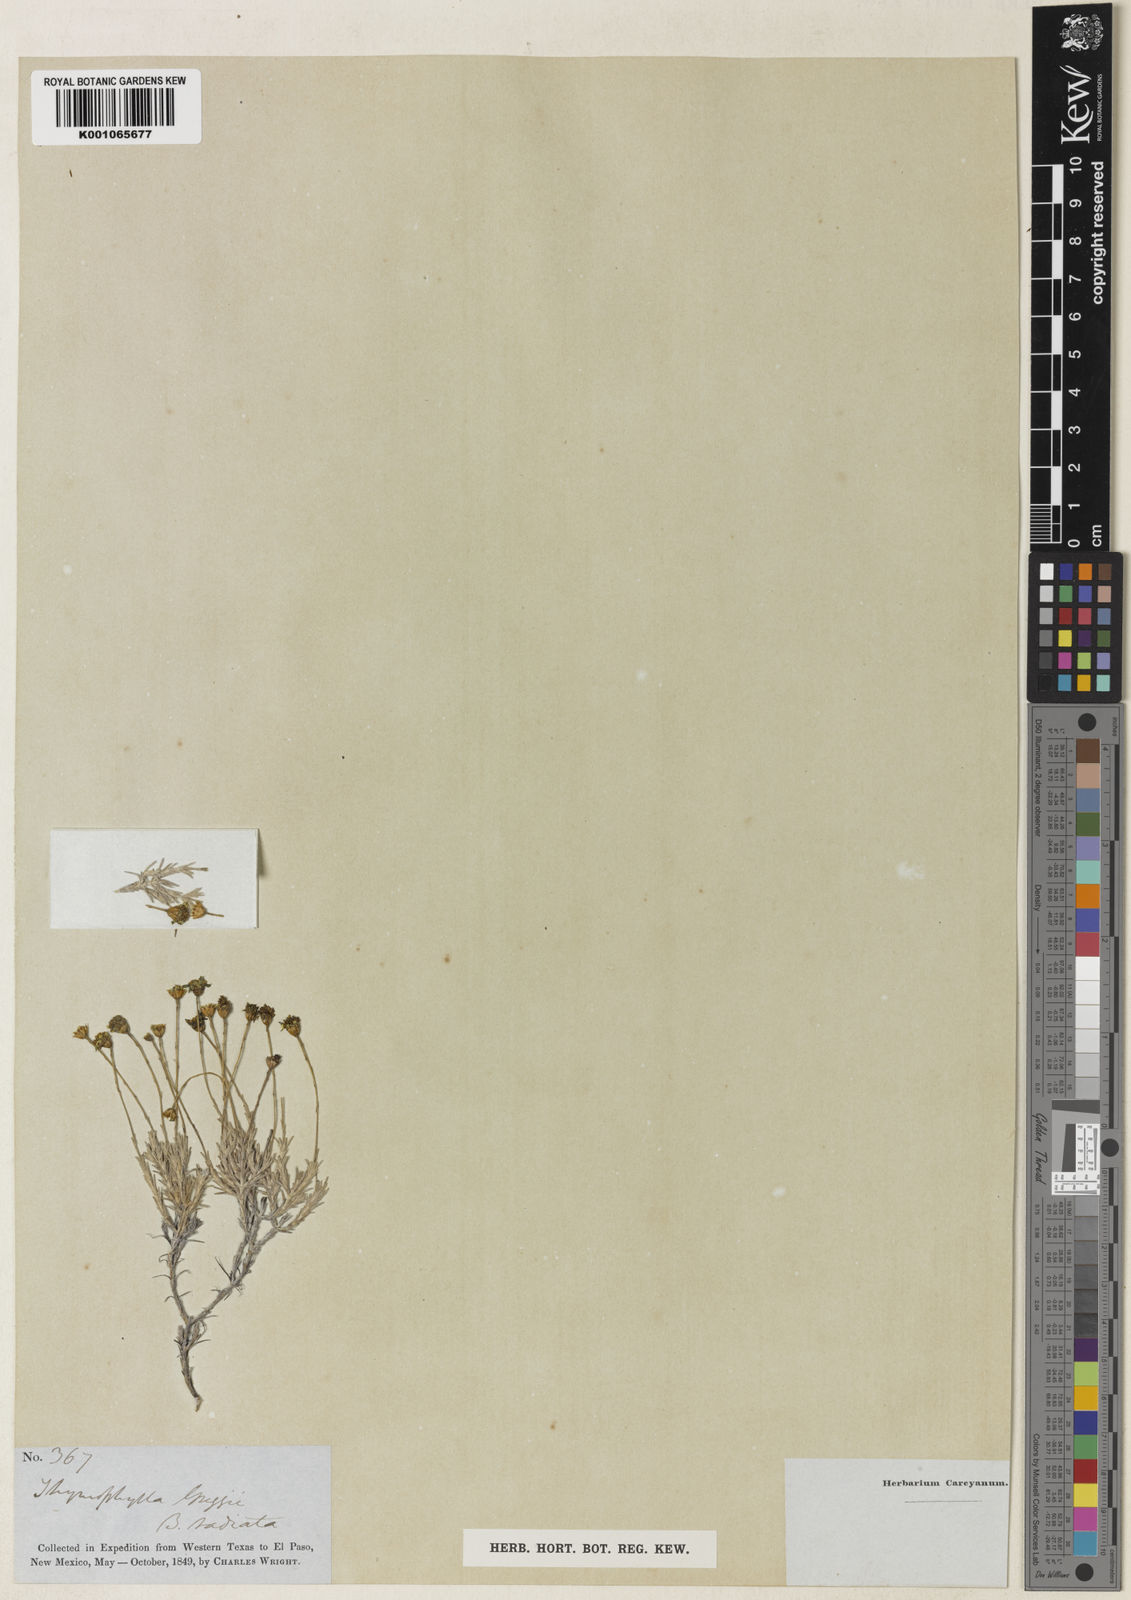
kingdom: Plantae
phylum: Tracheophyta
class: Magnoliopsida
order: Asterales
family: Asteraceae
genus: Thymophylla
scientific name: Thymophylla setifolia
